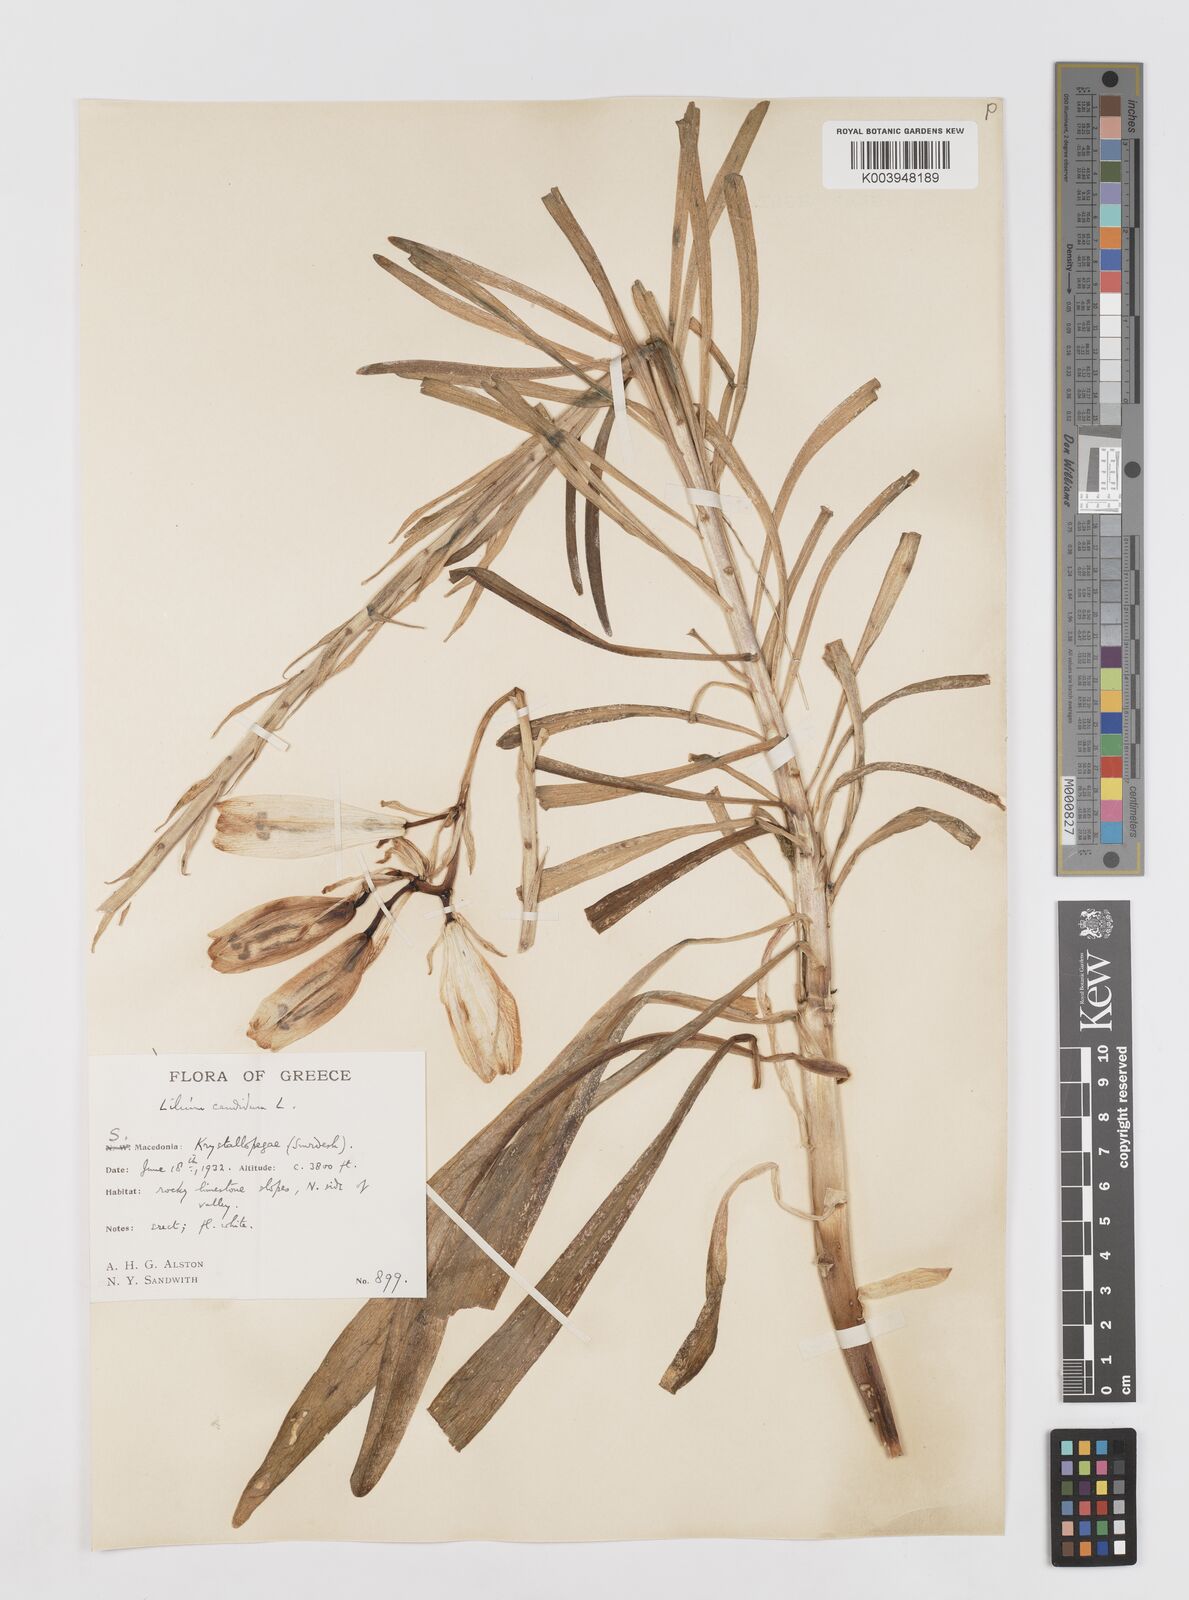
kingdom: Plantae
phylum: Tracheophyta
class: Liliopsida
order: Liliales
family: Liliaceae
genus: Lilium
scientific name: Lilium candidum
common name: Madonna lily
